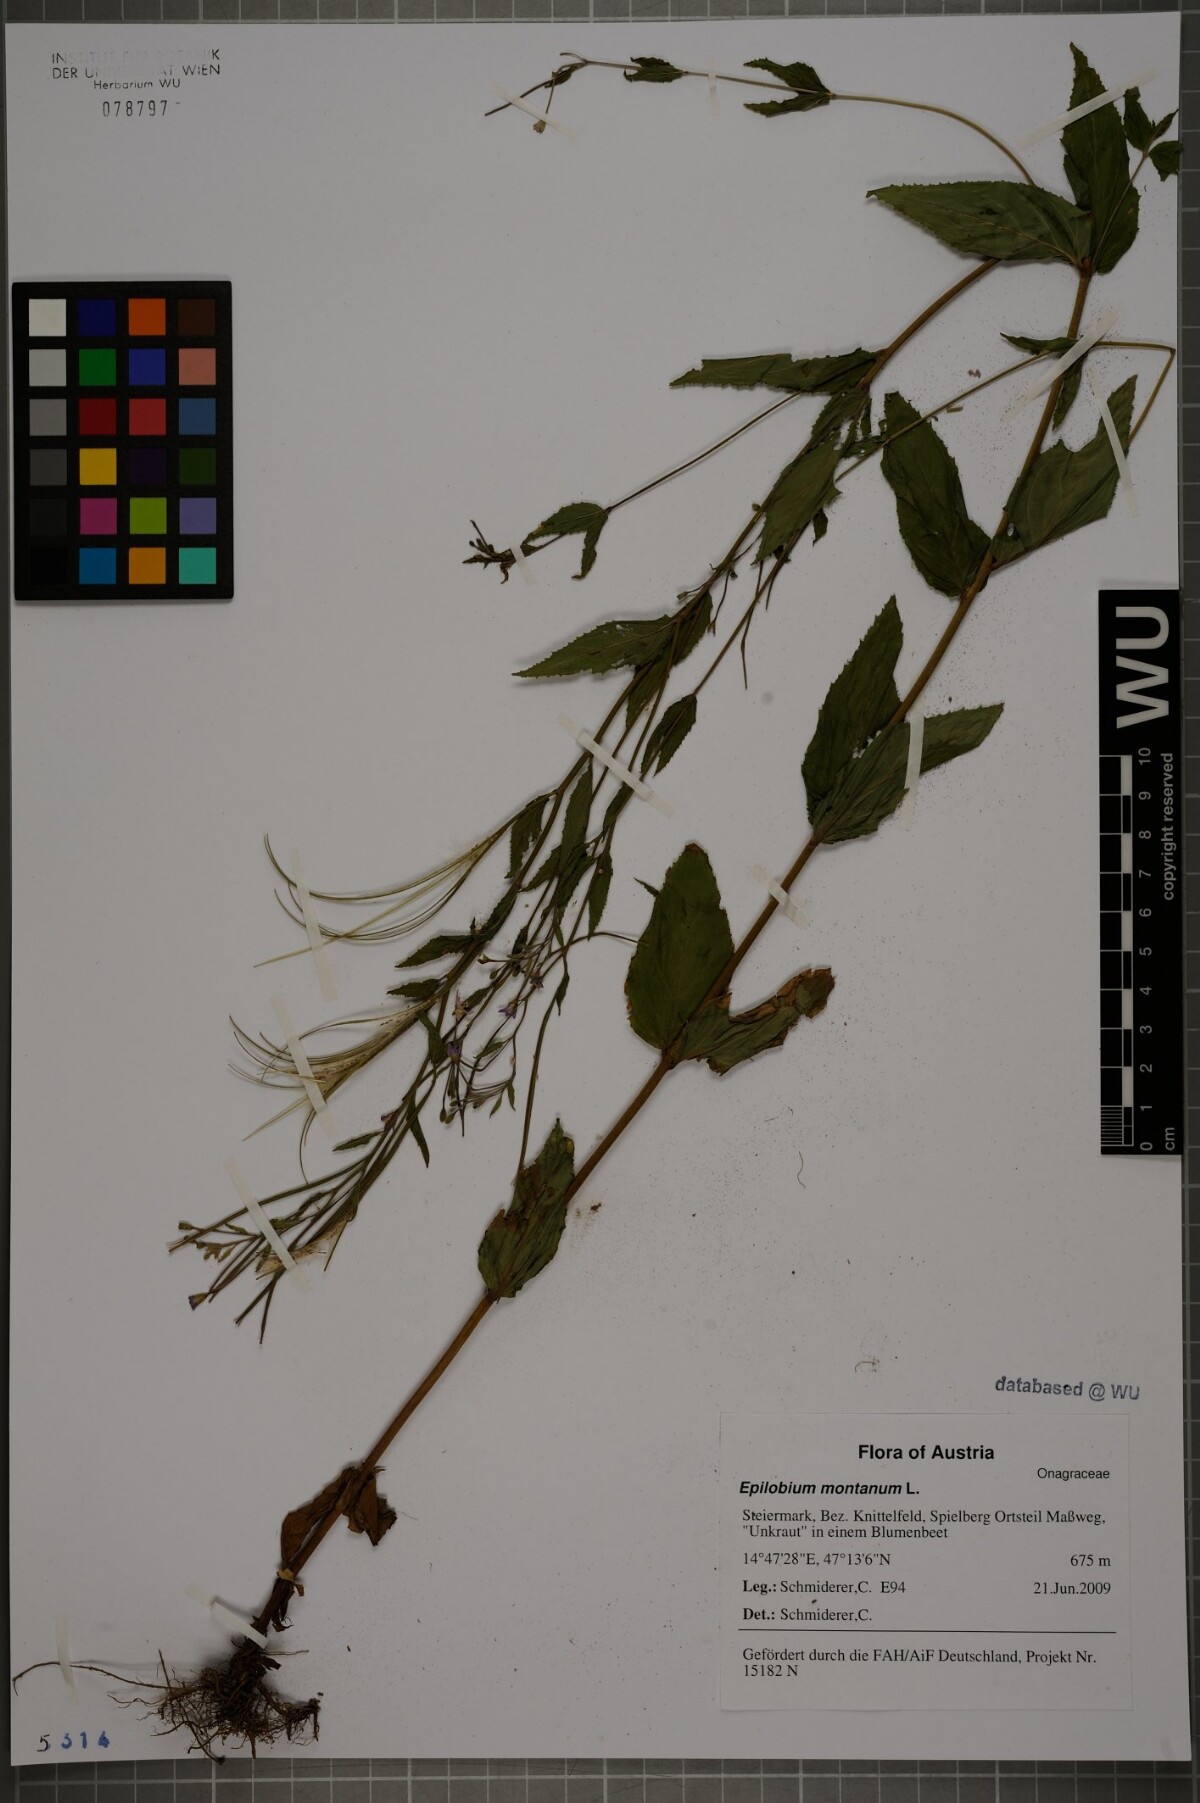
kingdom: Plantae
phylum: Tracheophyta
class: Magnoliopsida
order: Myrtales
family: Onagraceae
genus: Epilobium
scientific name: Epilobium montanum
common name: Broad-leaved willowherb
